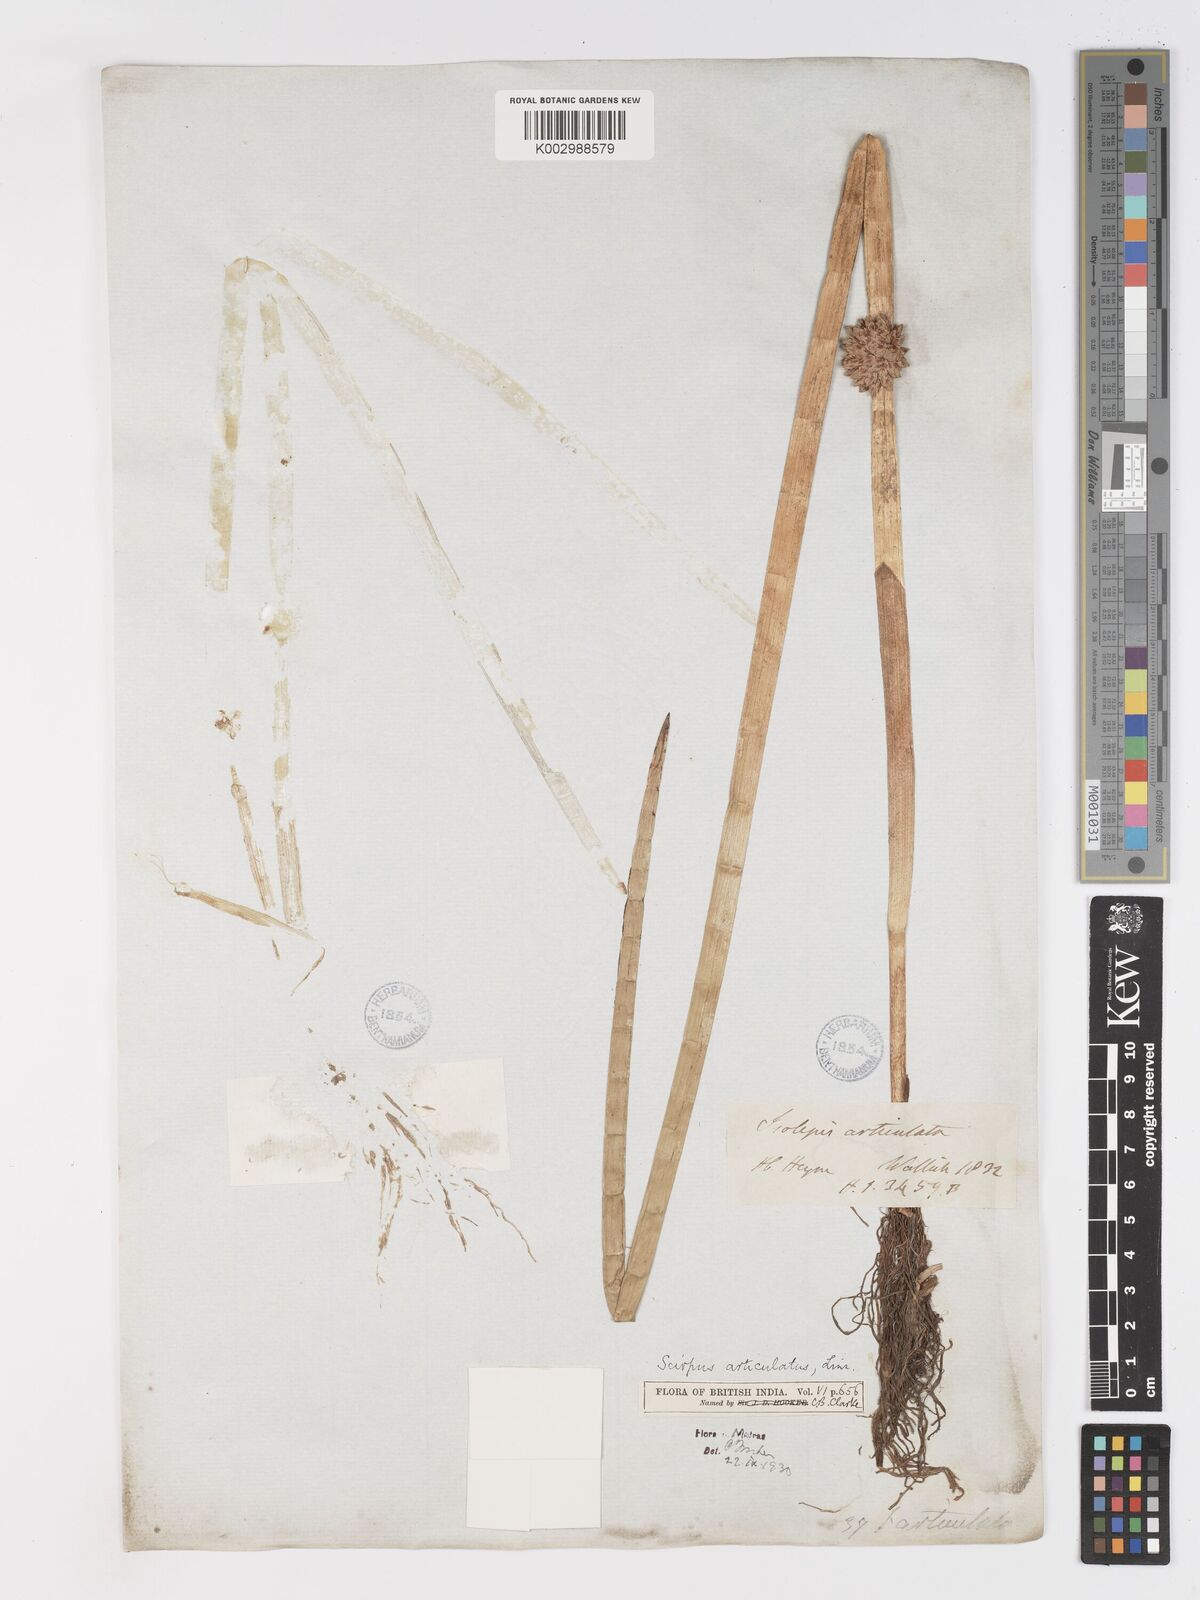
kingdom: Plantae
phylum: Tracheophyta
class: Liliopsida
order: Poales
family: Cyperaceae
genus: Schoenoplectiella
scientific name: Schoenoplectiella articulata
